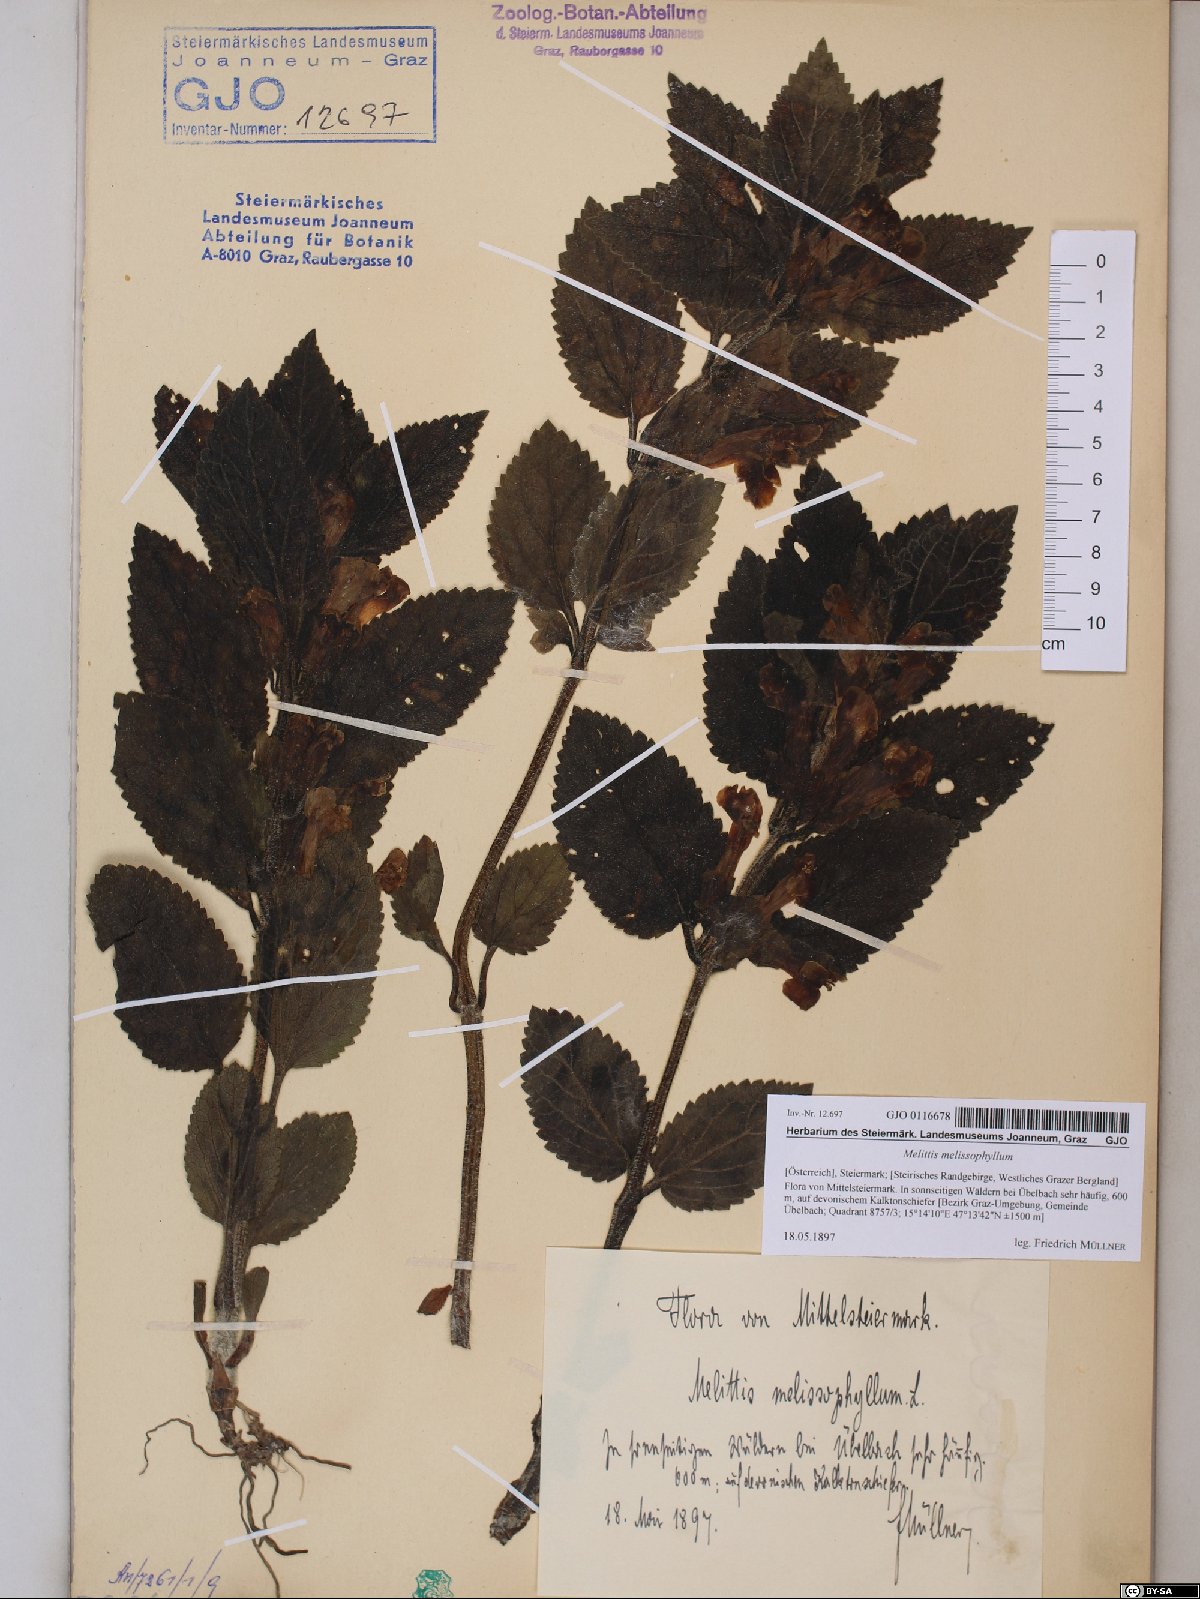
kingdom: Plantae
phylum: Tracheophyta
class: Magnoliopsida
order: Lamiales
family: Lamiaceae
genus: Melittis
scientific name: Melittis melissophyllum
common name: Bastard balm
